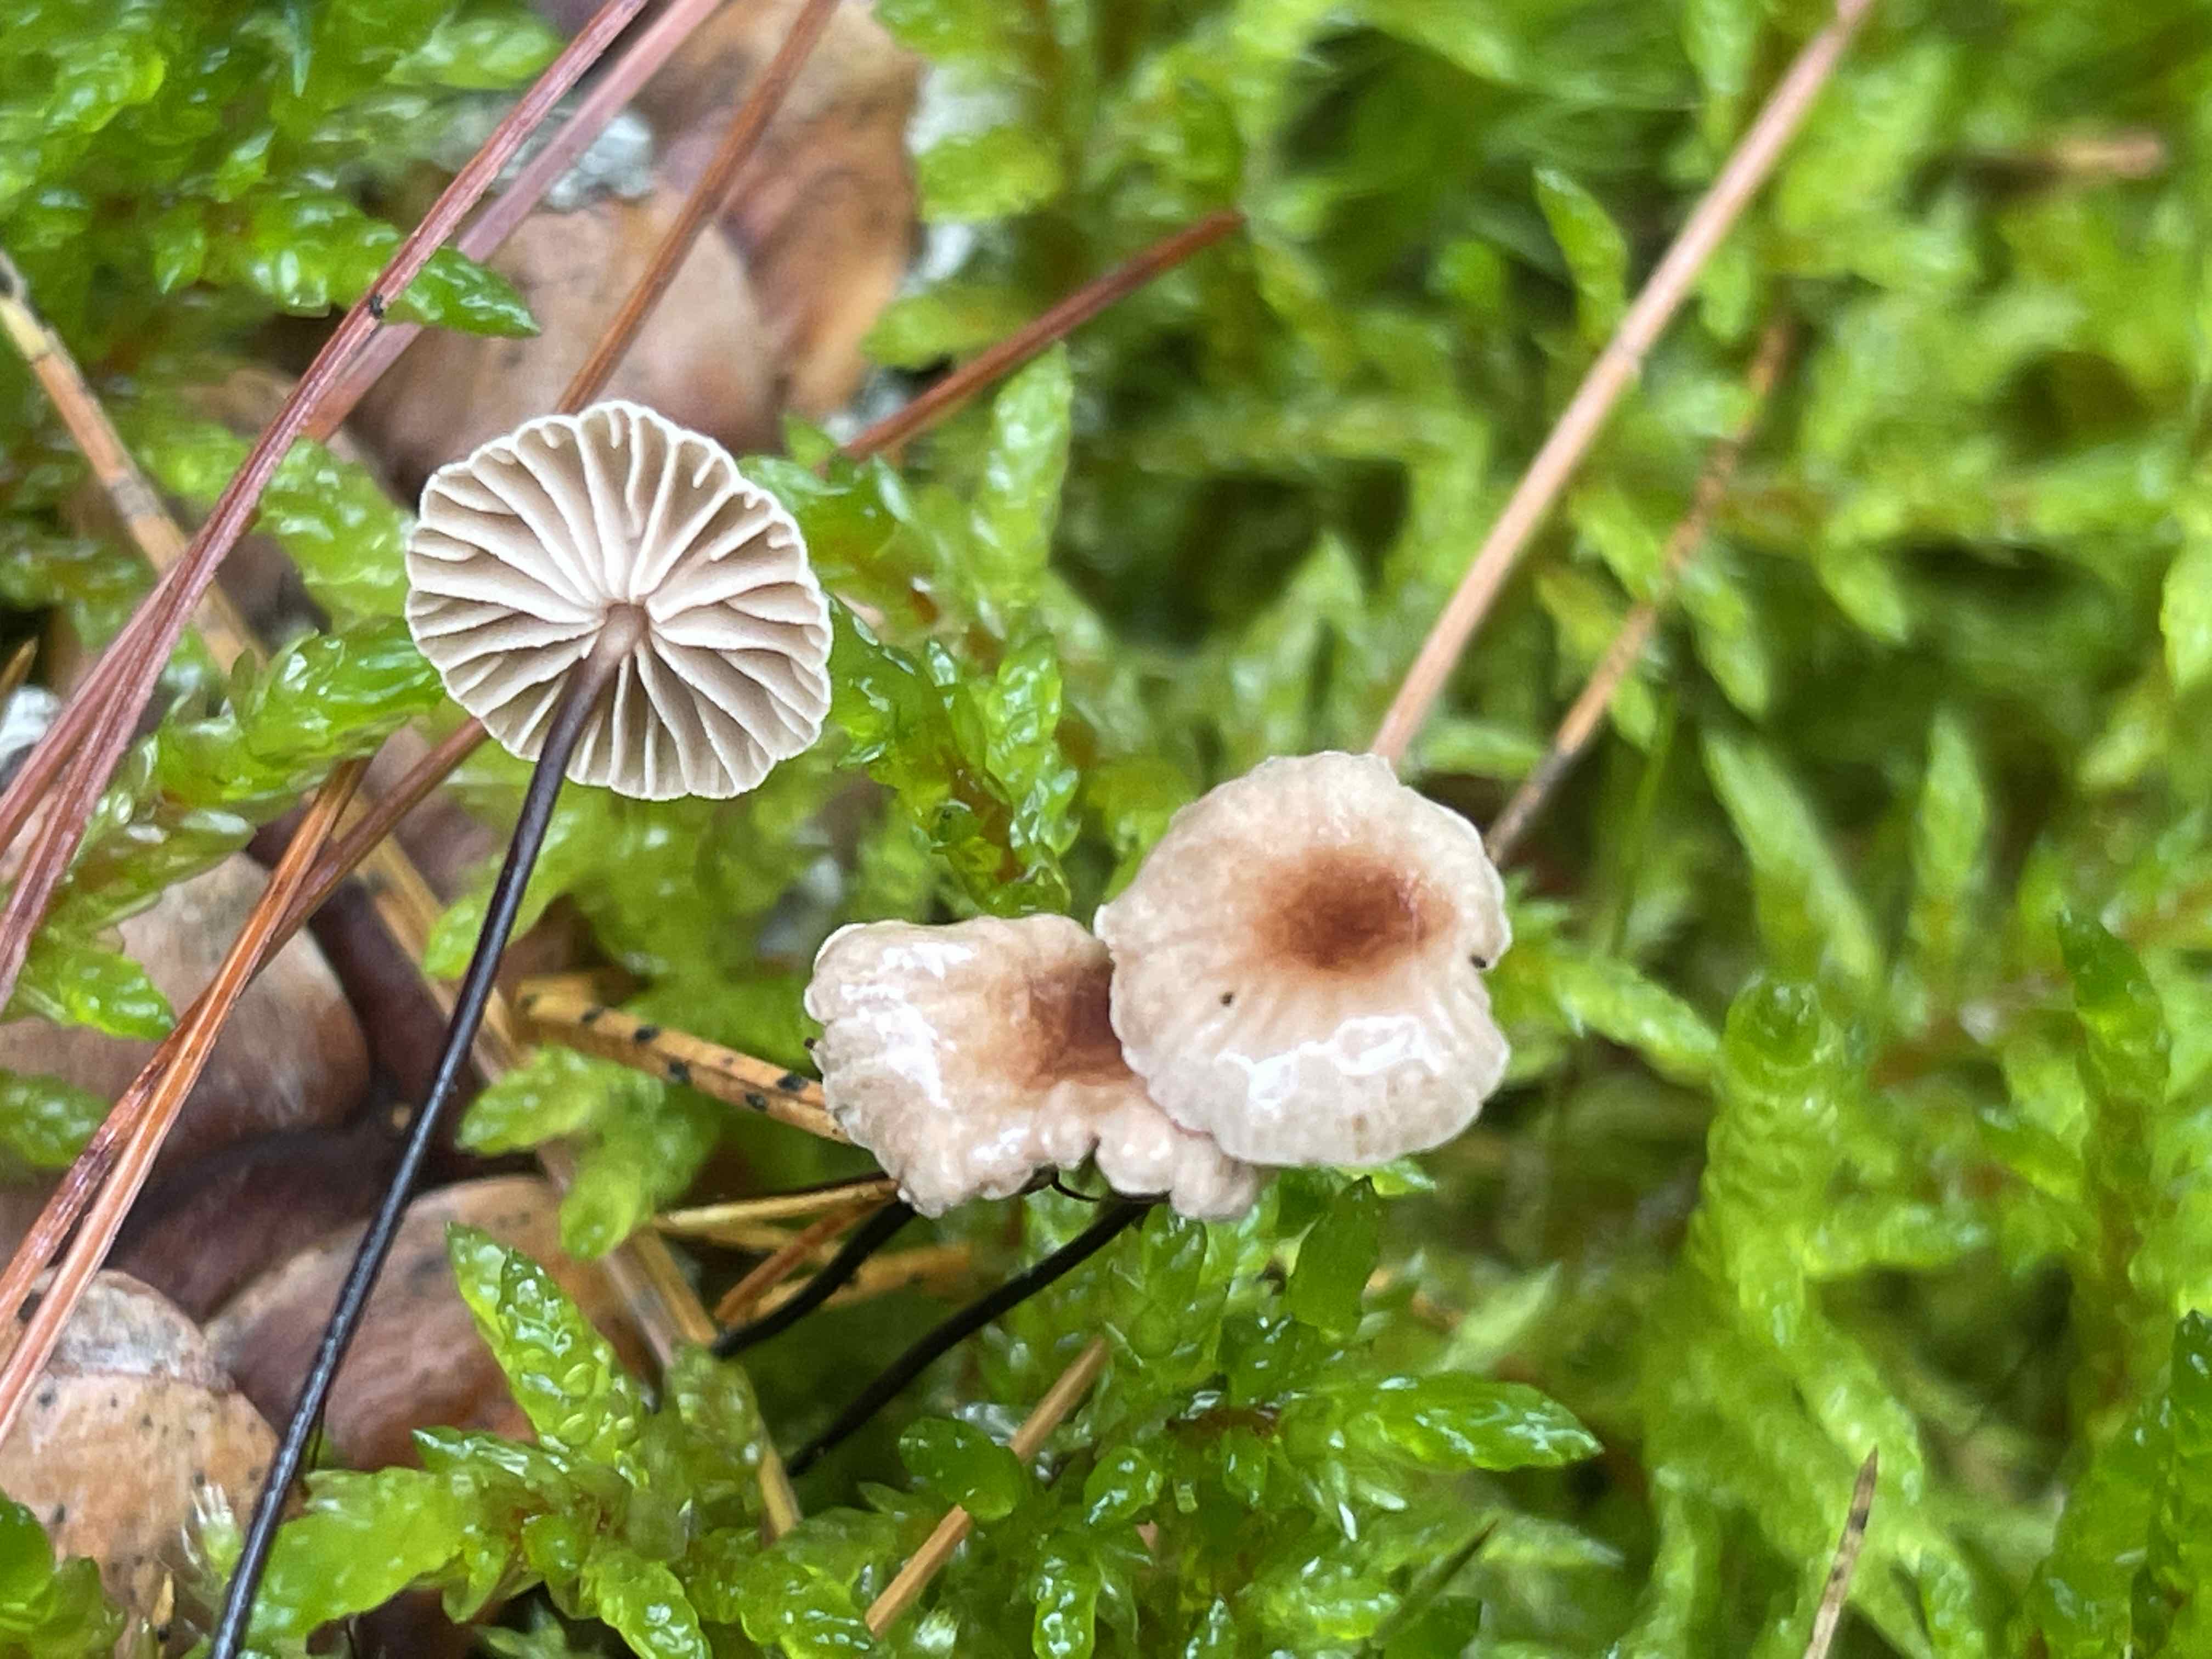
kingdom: Fungi
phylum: Basidiomycota
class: Agaricomycetes
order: Agaricales
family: Omphalotaceae
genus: Gymnopus
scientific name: Gymnopus androsaceus
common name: trådstokket fladhat
